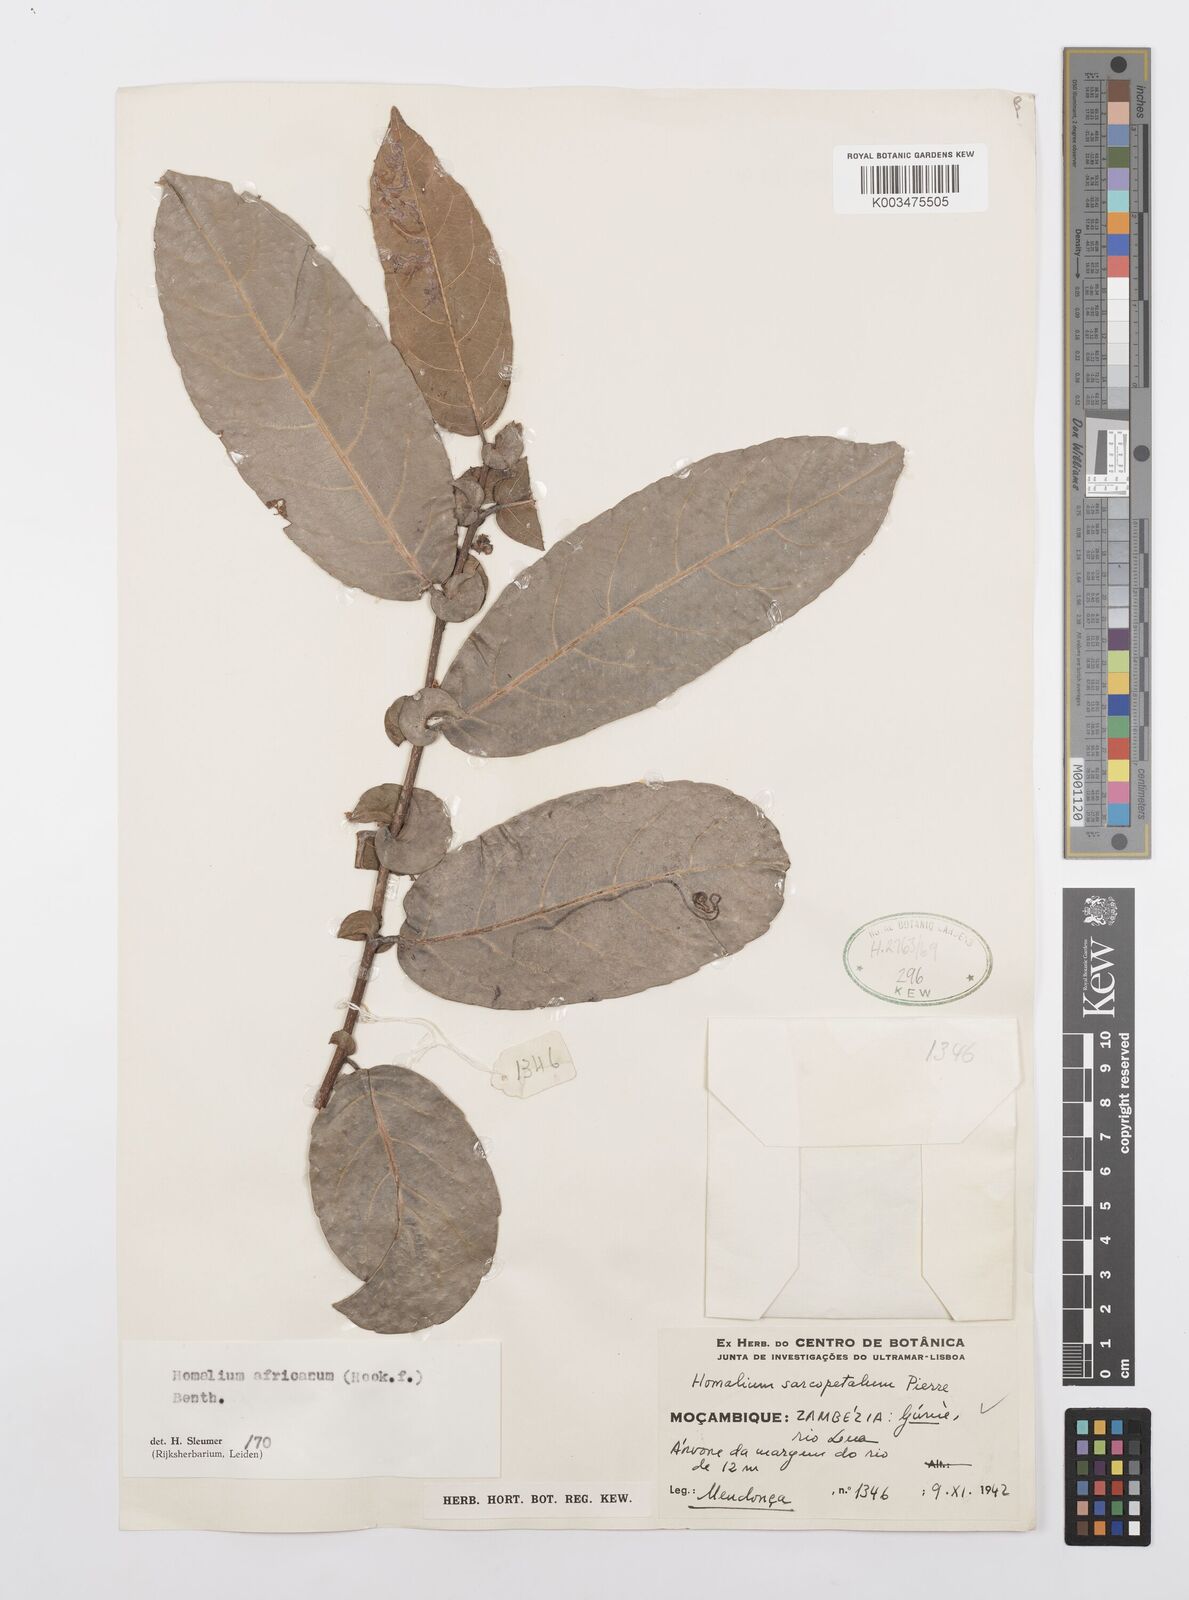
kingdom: Plantae
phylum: Tracheophyta
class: Magnoliopsida
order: Malpighiales
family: Salicaceae
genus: Homalium
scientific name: Homalium africanum
